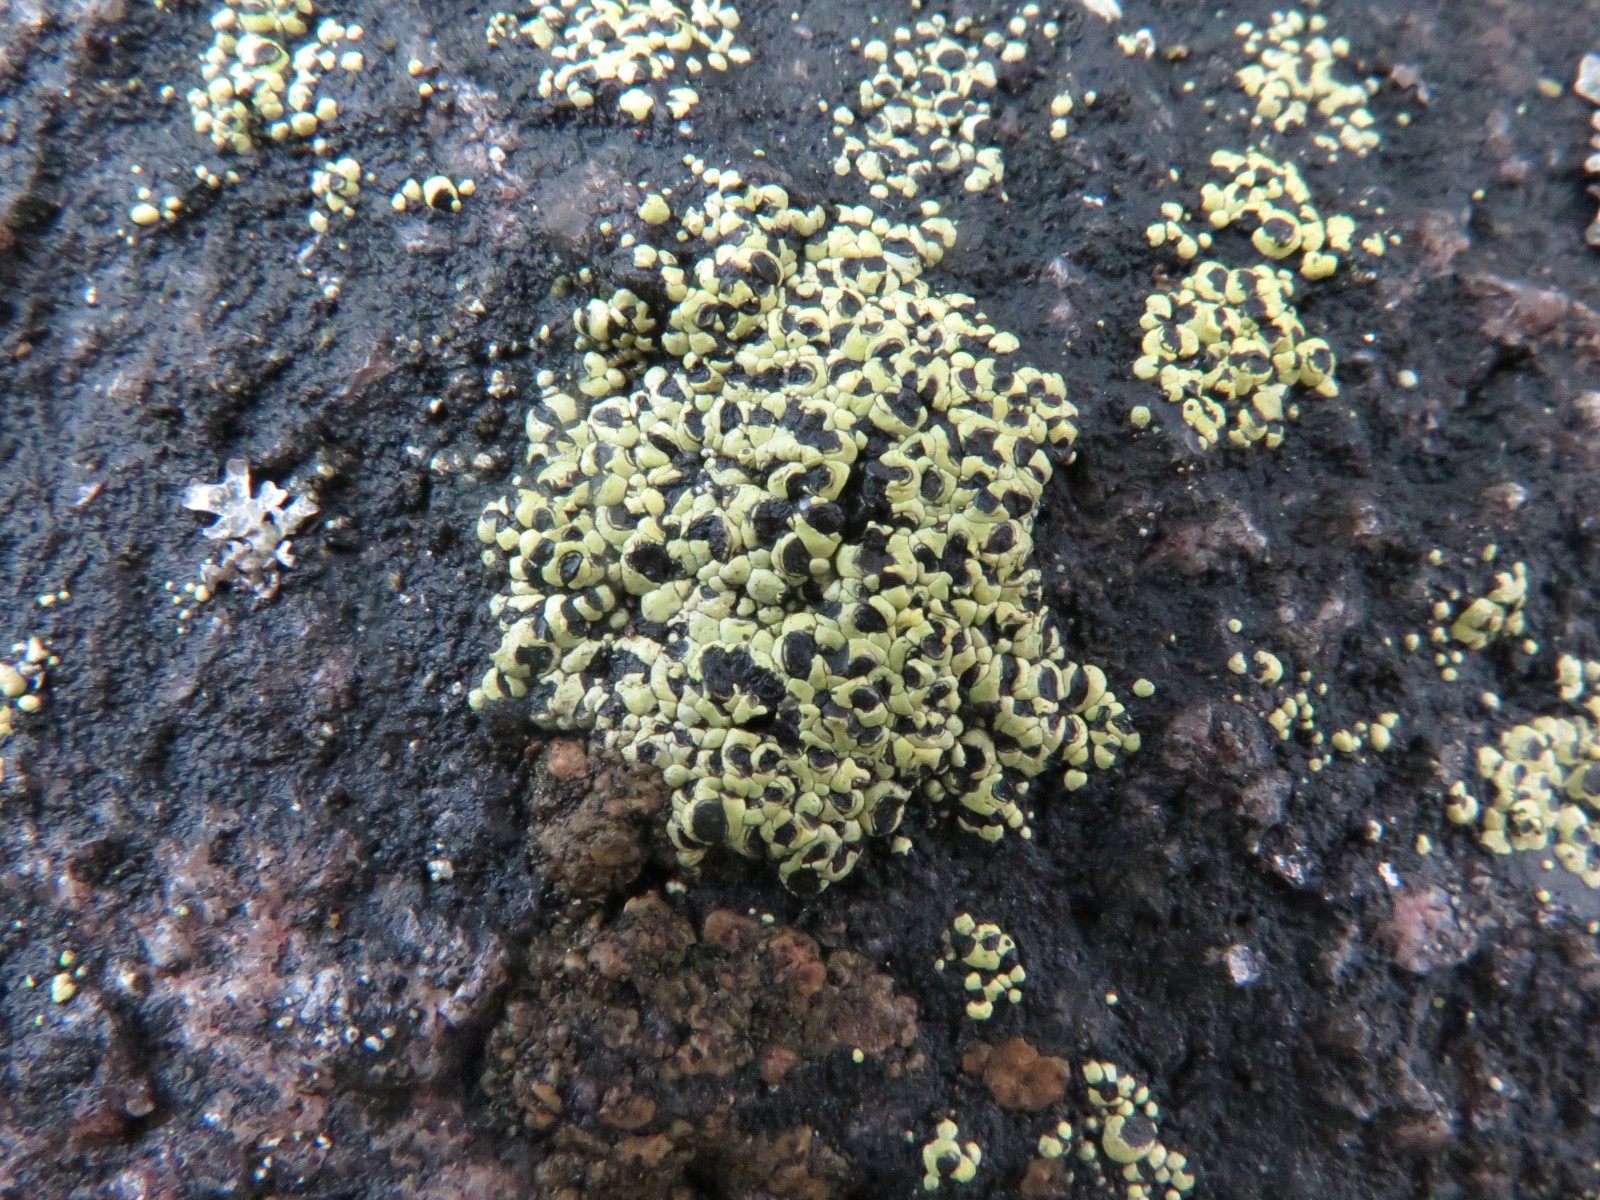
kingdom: Fungi
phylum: Ascomycota
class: Lecanoromycetes
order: Rhizocarpales
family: Rhizocarpaceae
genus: Rhizocarpon
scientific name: Rhizocarpon lecanorinum
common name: krave-landkortlav
